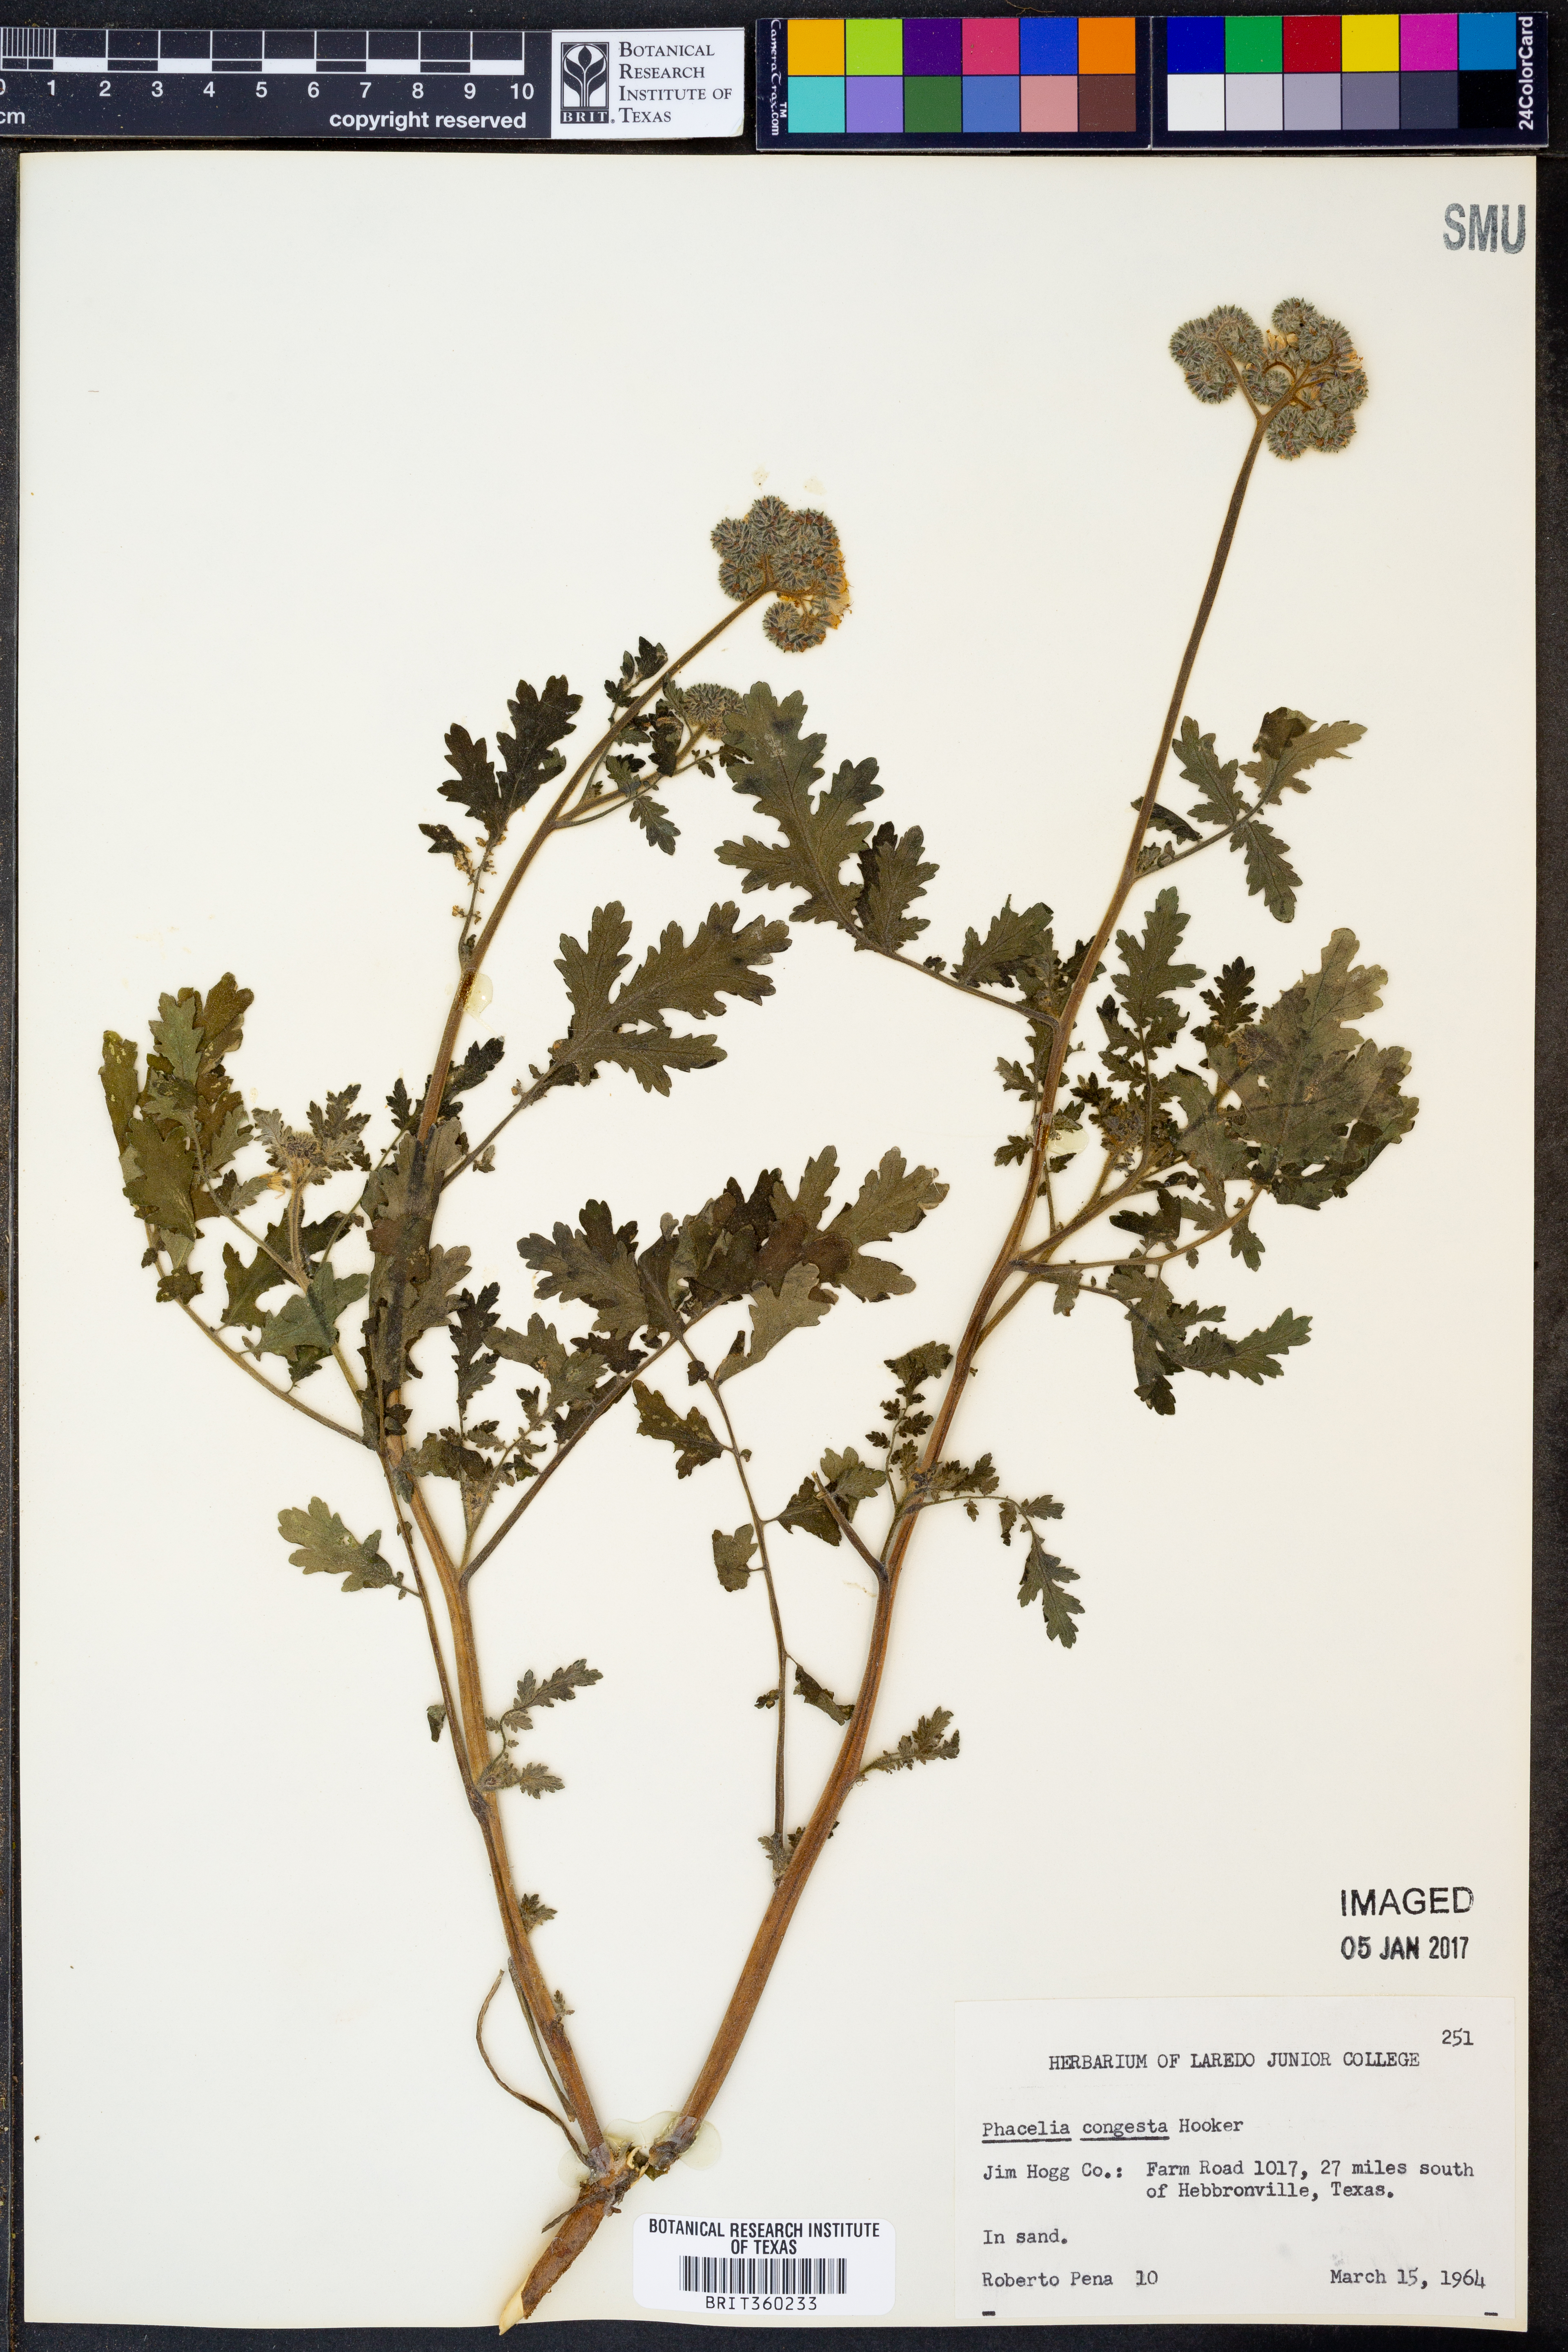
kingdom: Plantae
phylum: Tracheophyta
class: Magnoliopsida
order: Boraginales
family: Hydrophyllaceae
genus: Phacelia
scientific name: Phacelia congesta
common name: Blue curls
